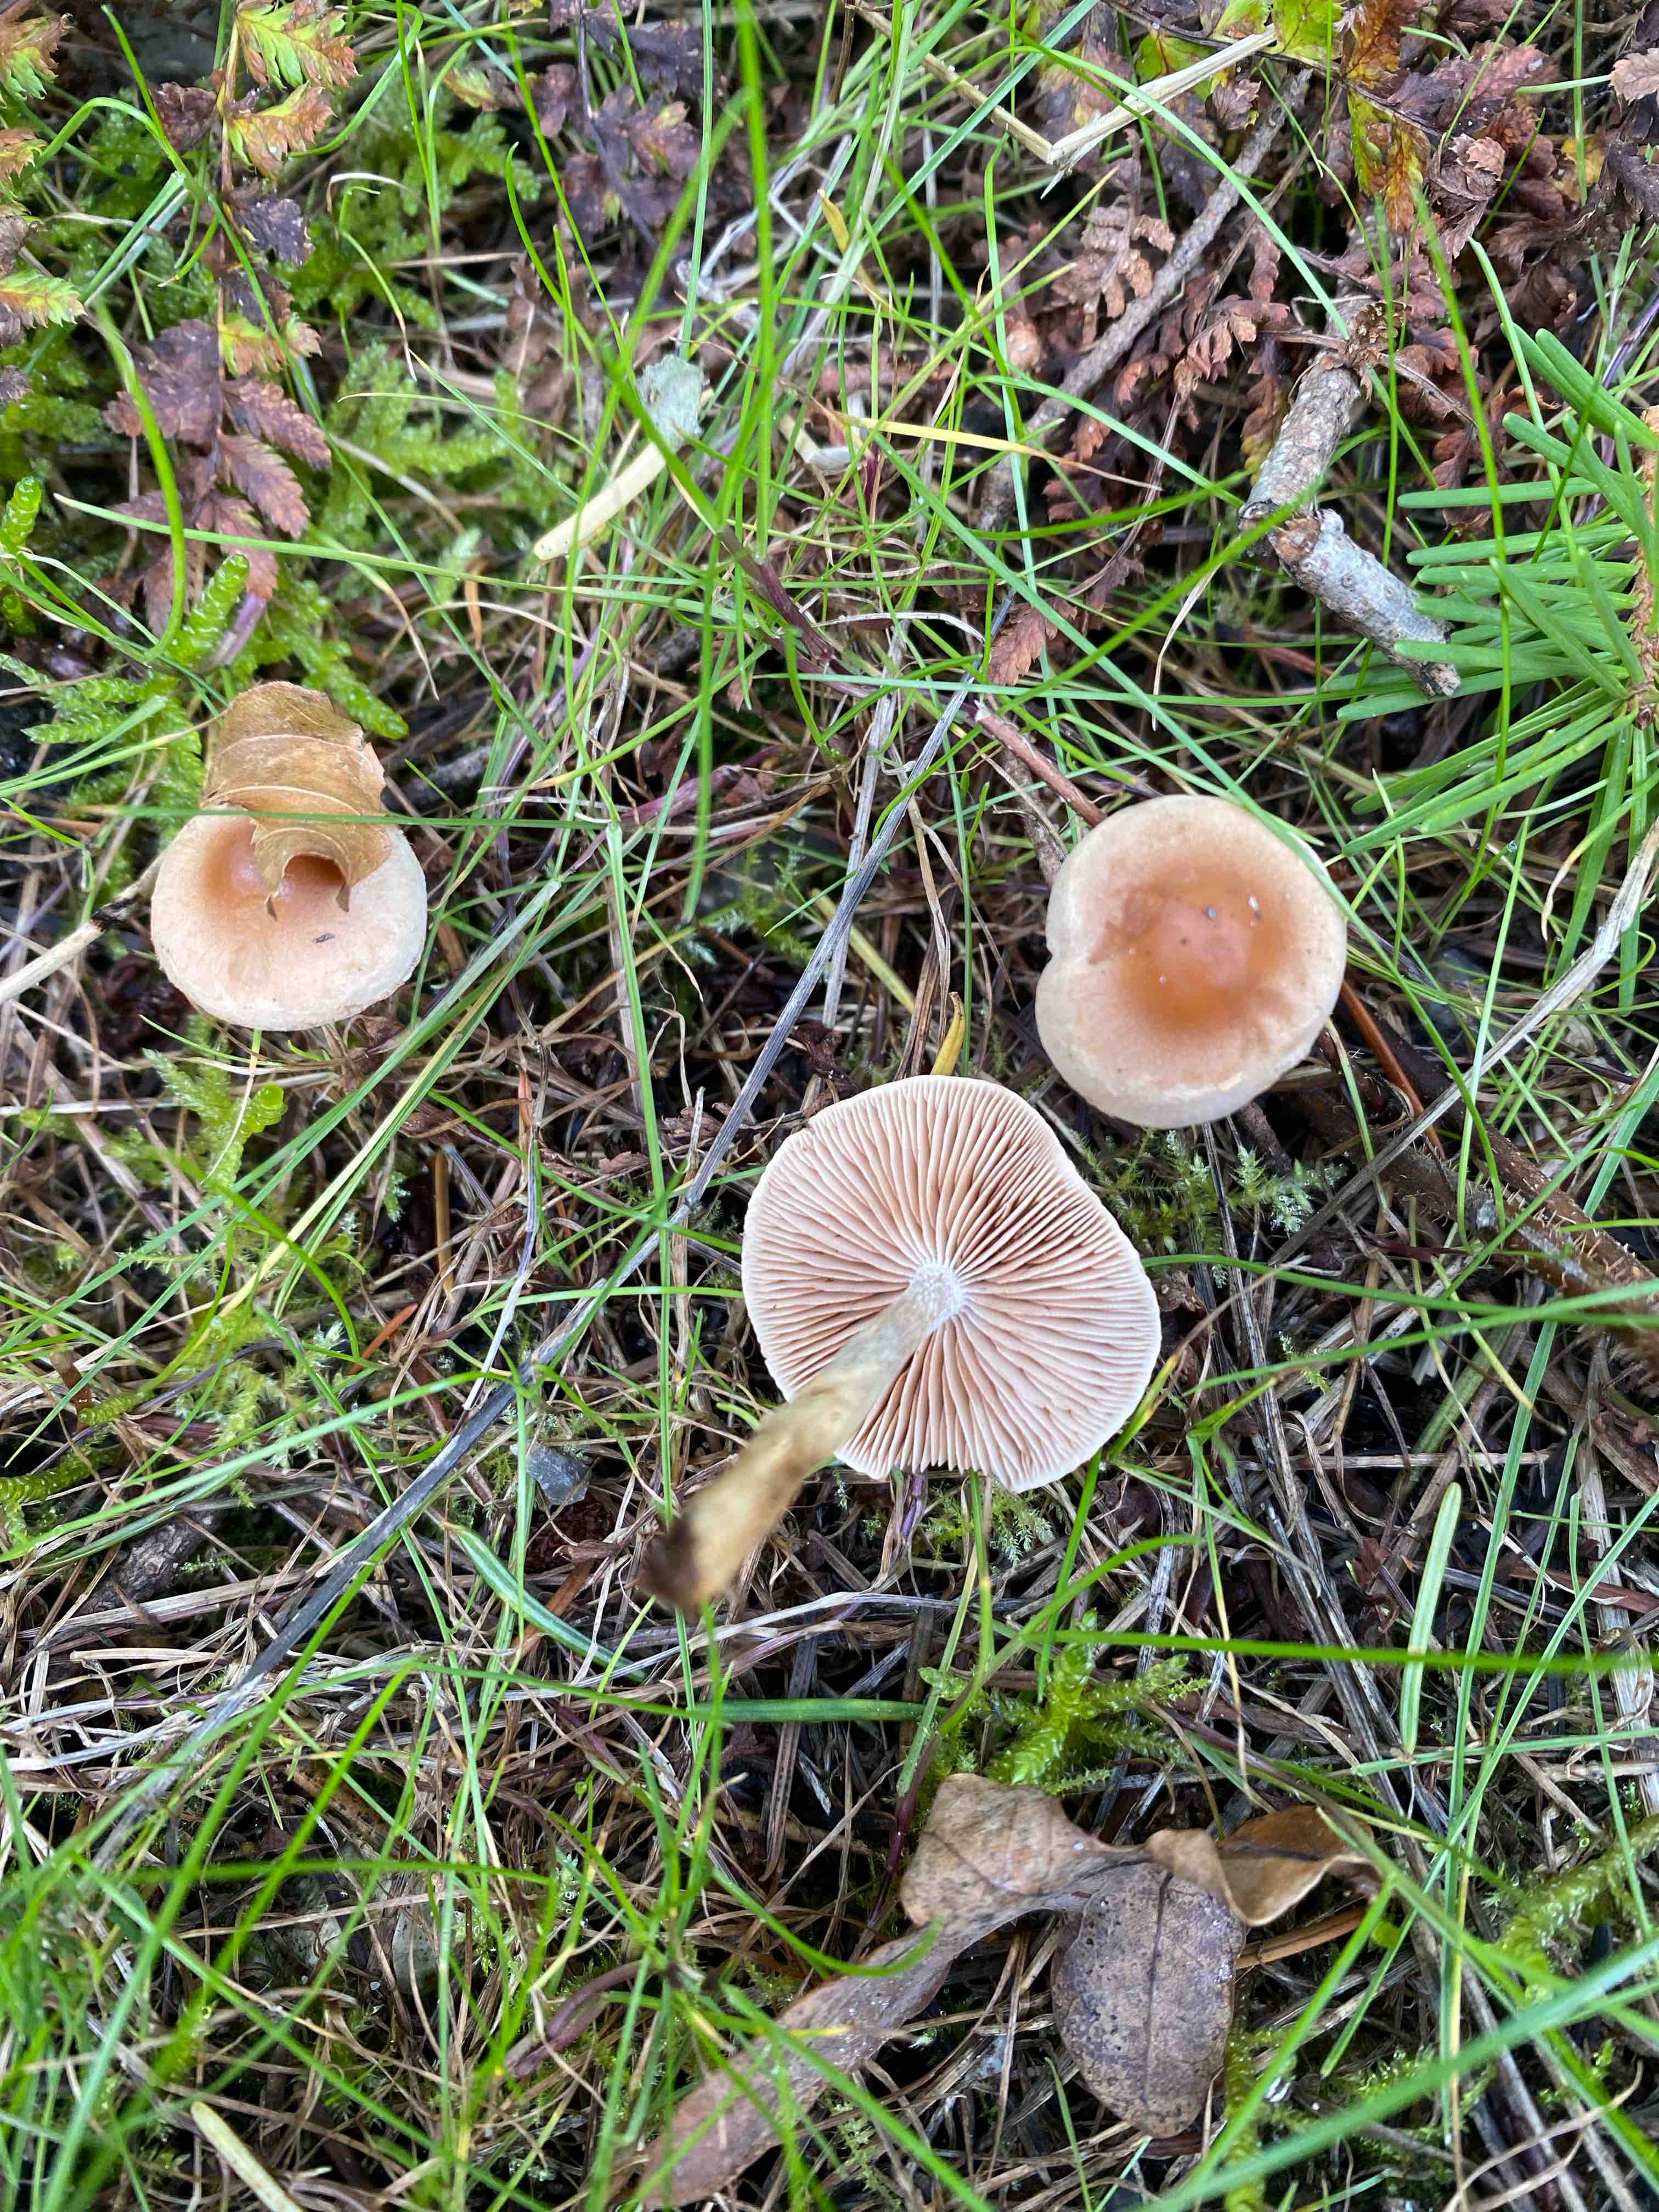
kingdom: Fungi
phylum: Basidiomycota
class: Agaricomycetes
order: Agaricales
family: Hymenogastraceae
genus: Hebeloma
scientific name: Hebeloma mesophaeum
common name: lerbrun tåreblad
